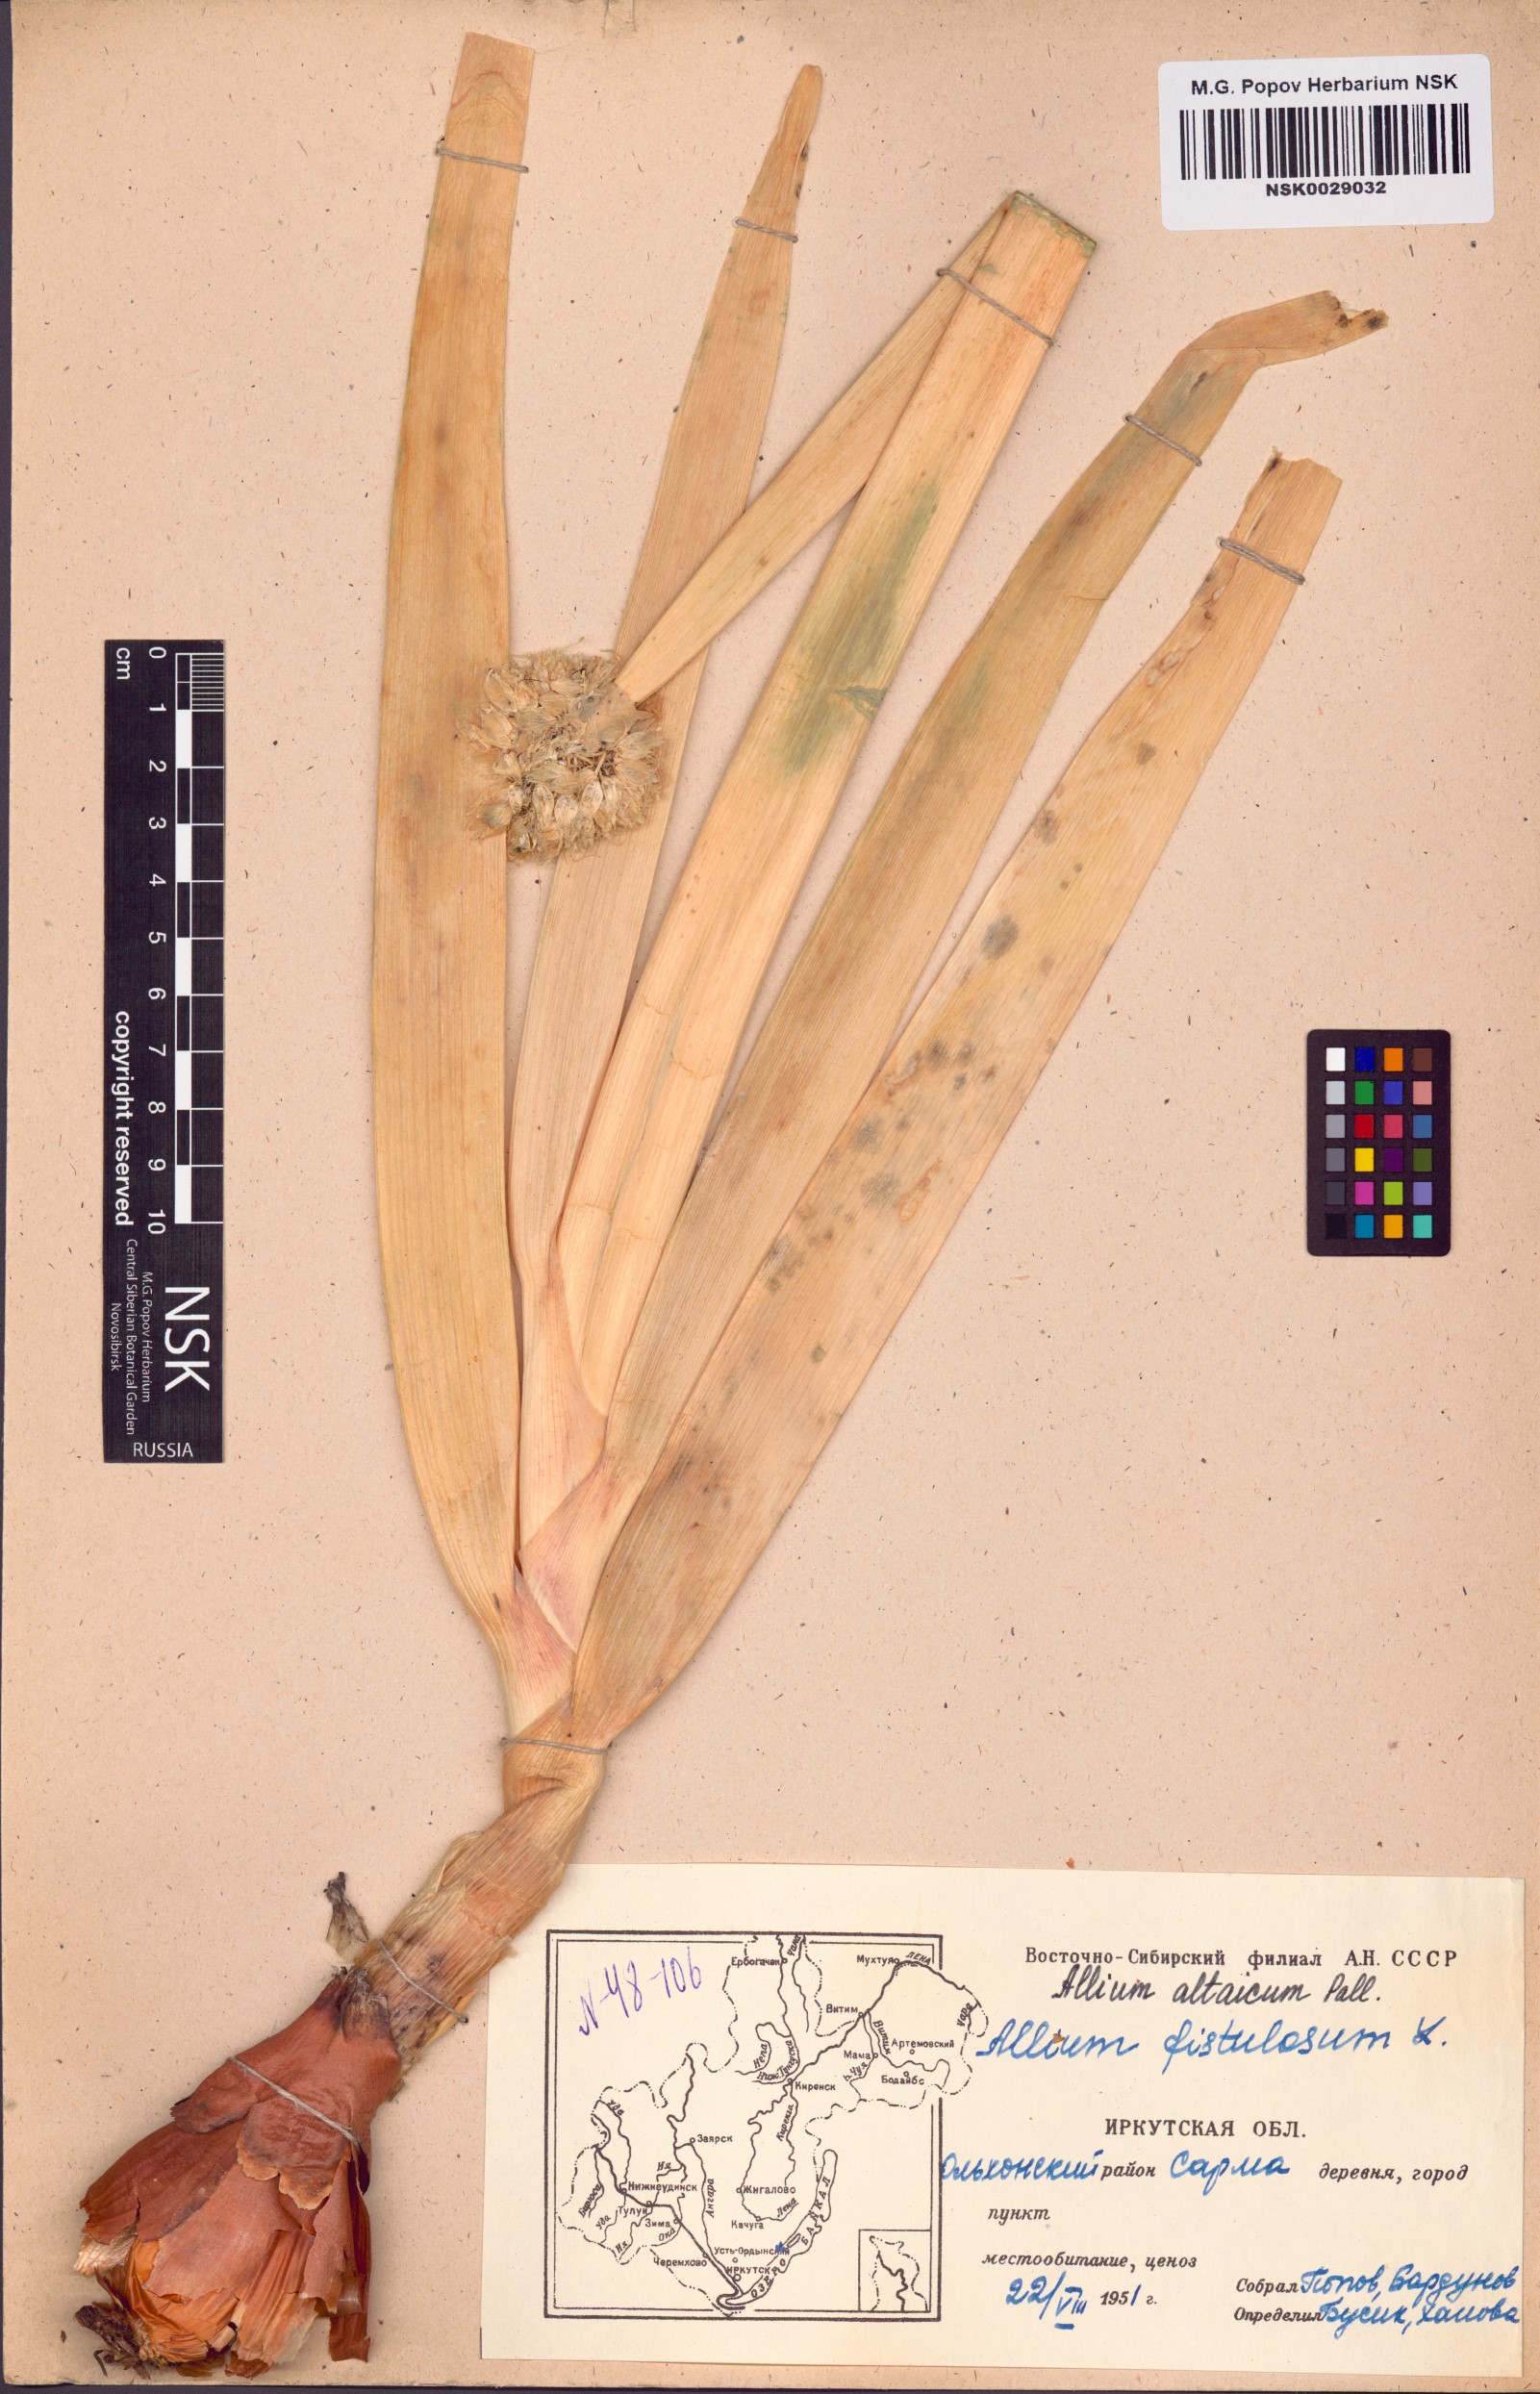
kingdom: Plantae
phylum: Tracheophyta
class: Liliopsida
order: Asparagales
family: Amaryllidaceae
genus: Allium
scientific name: Allium altaicum
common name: Altai onion
